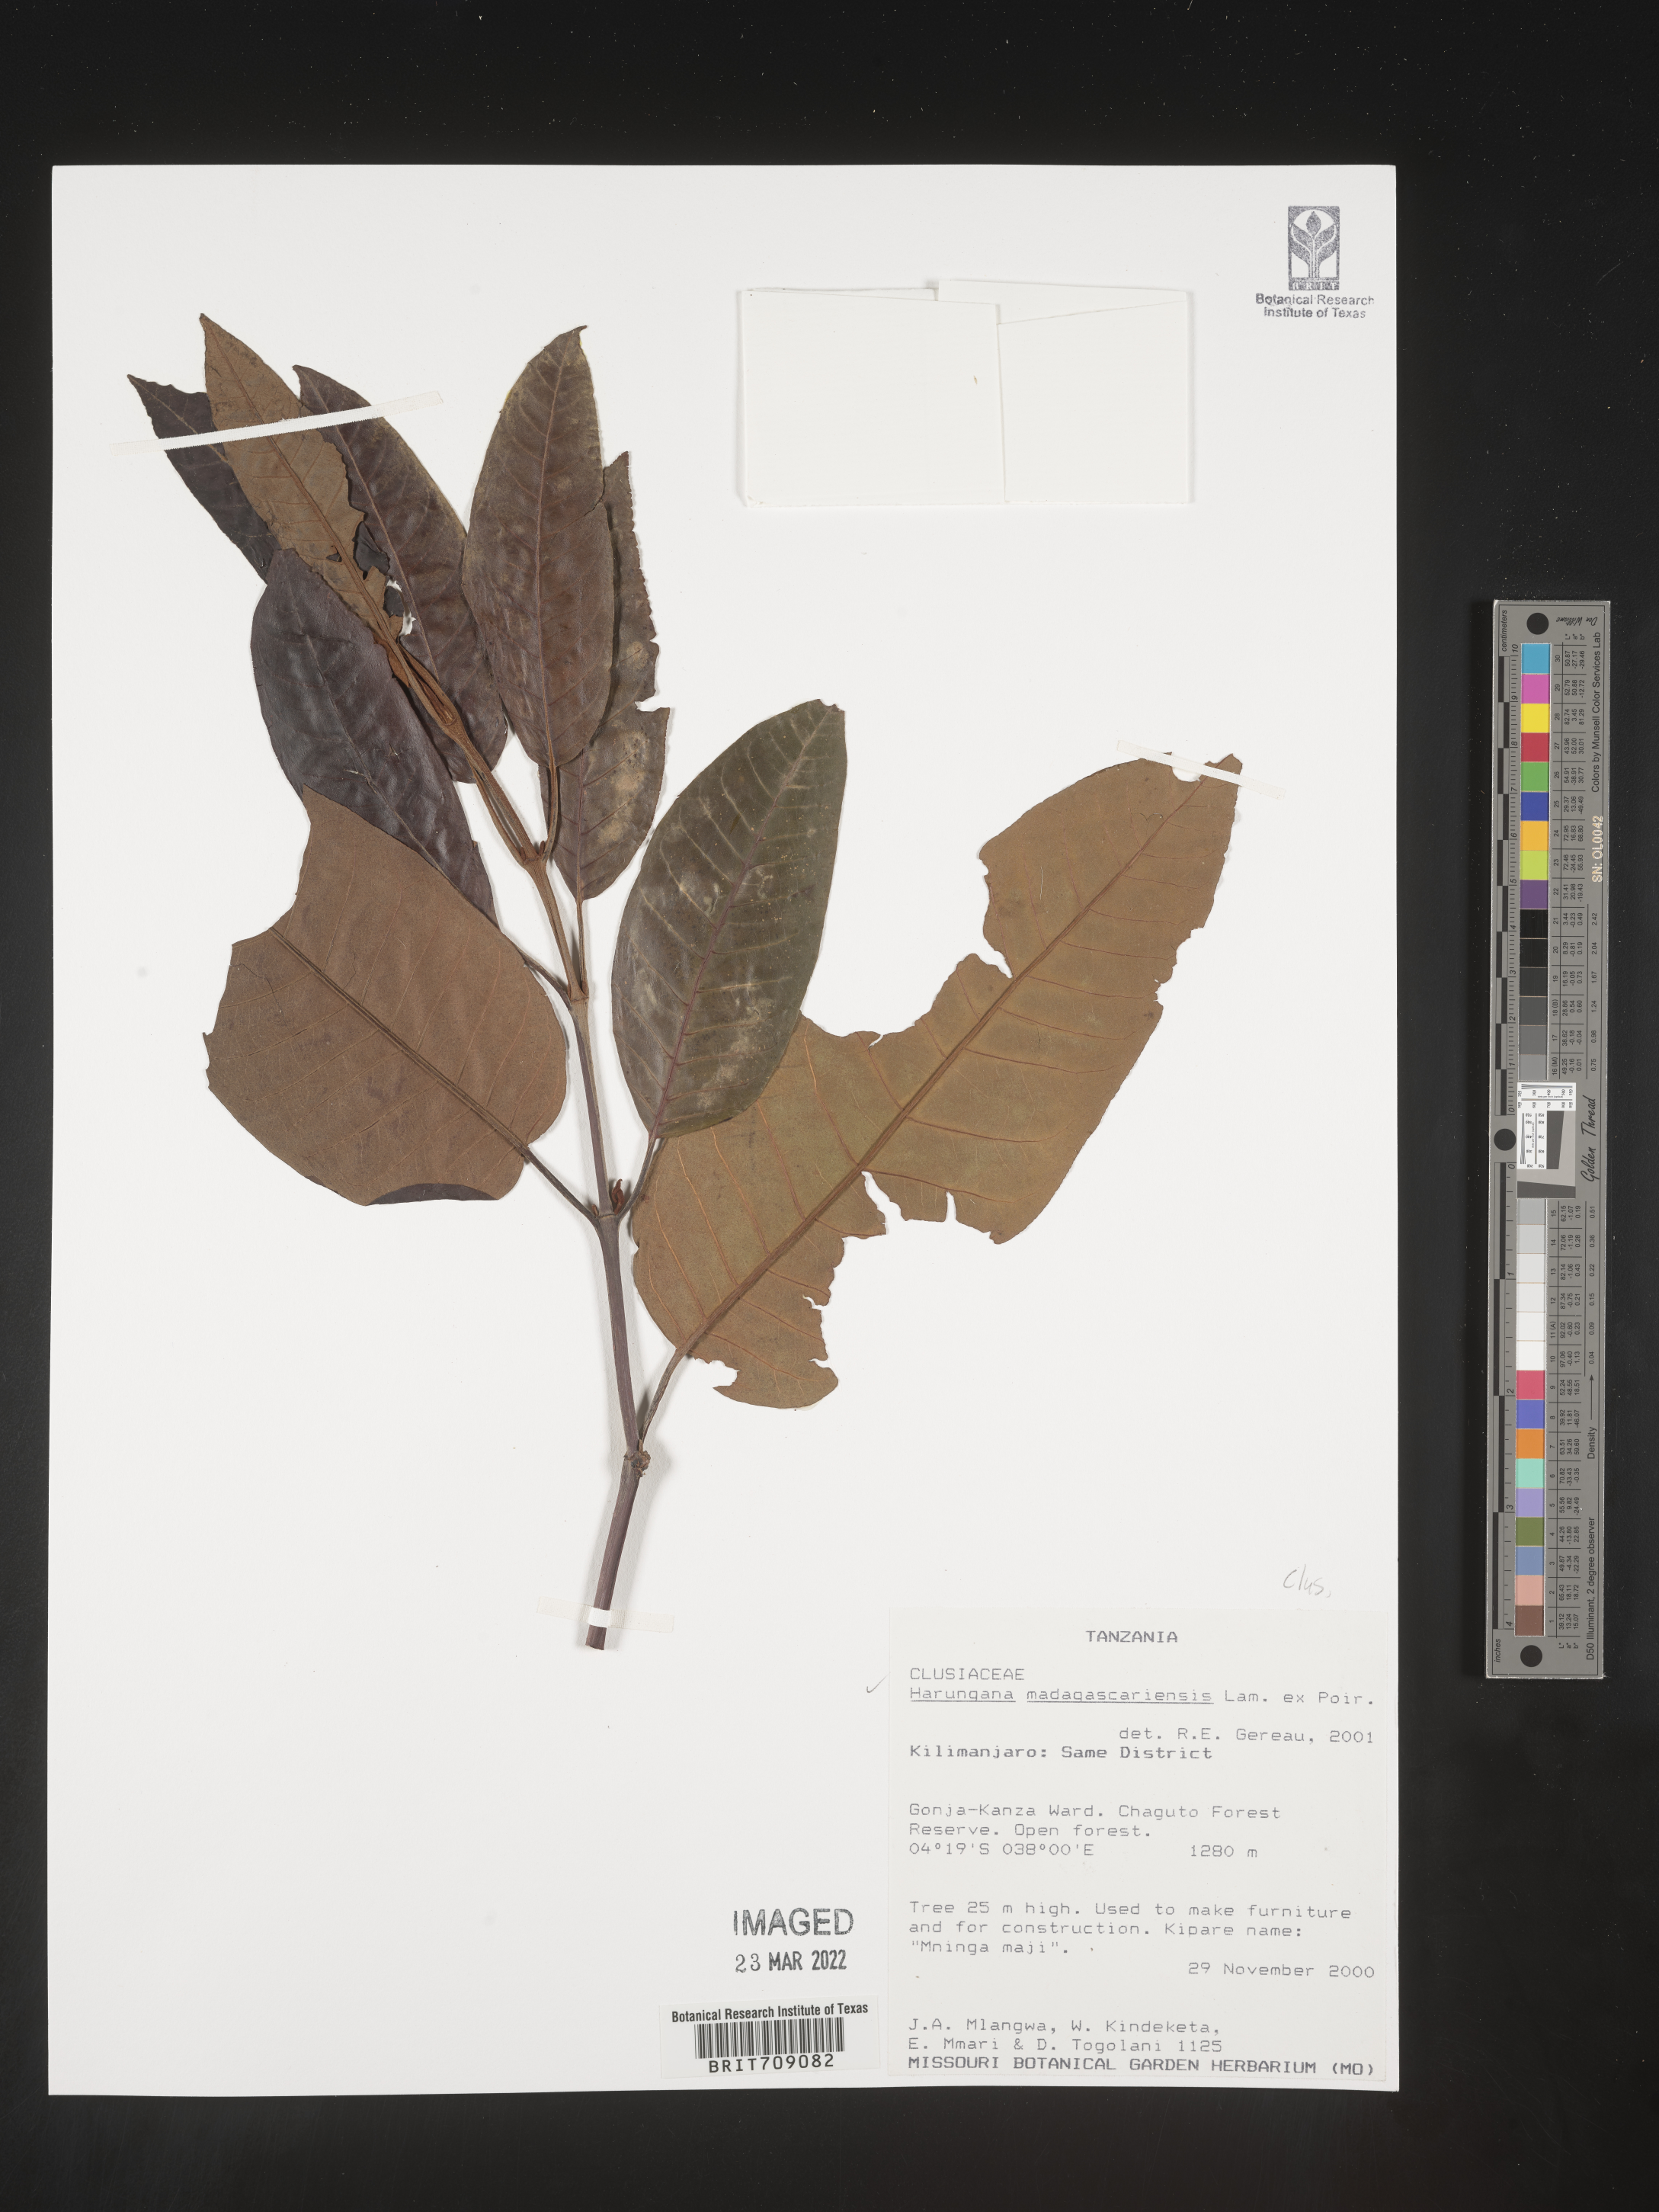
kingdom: Plantae
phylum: Tracheophyta
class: Magnoliopsida
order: Malpighiales
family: Hypericaceae
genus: Harungana
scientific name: Harungana
